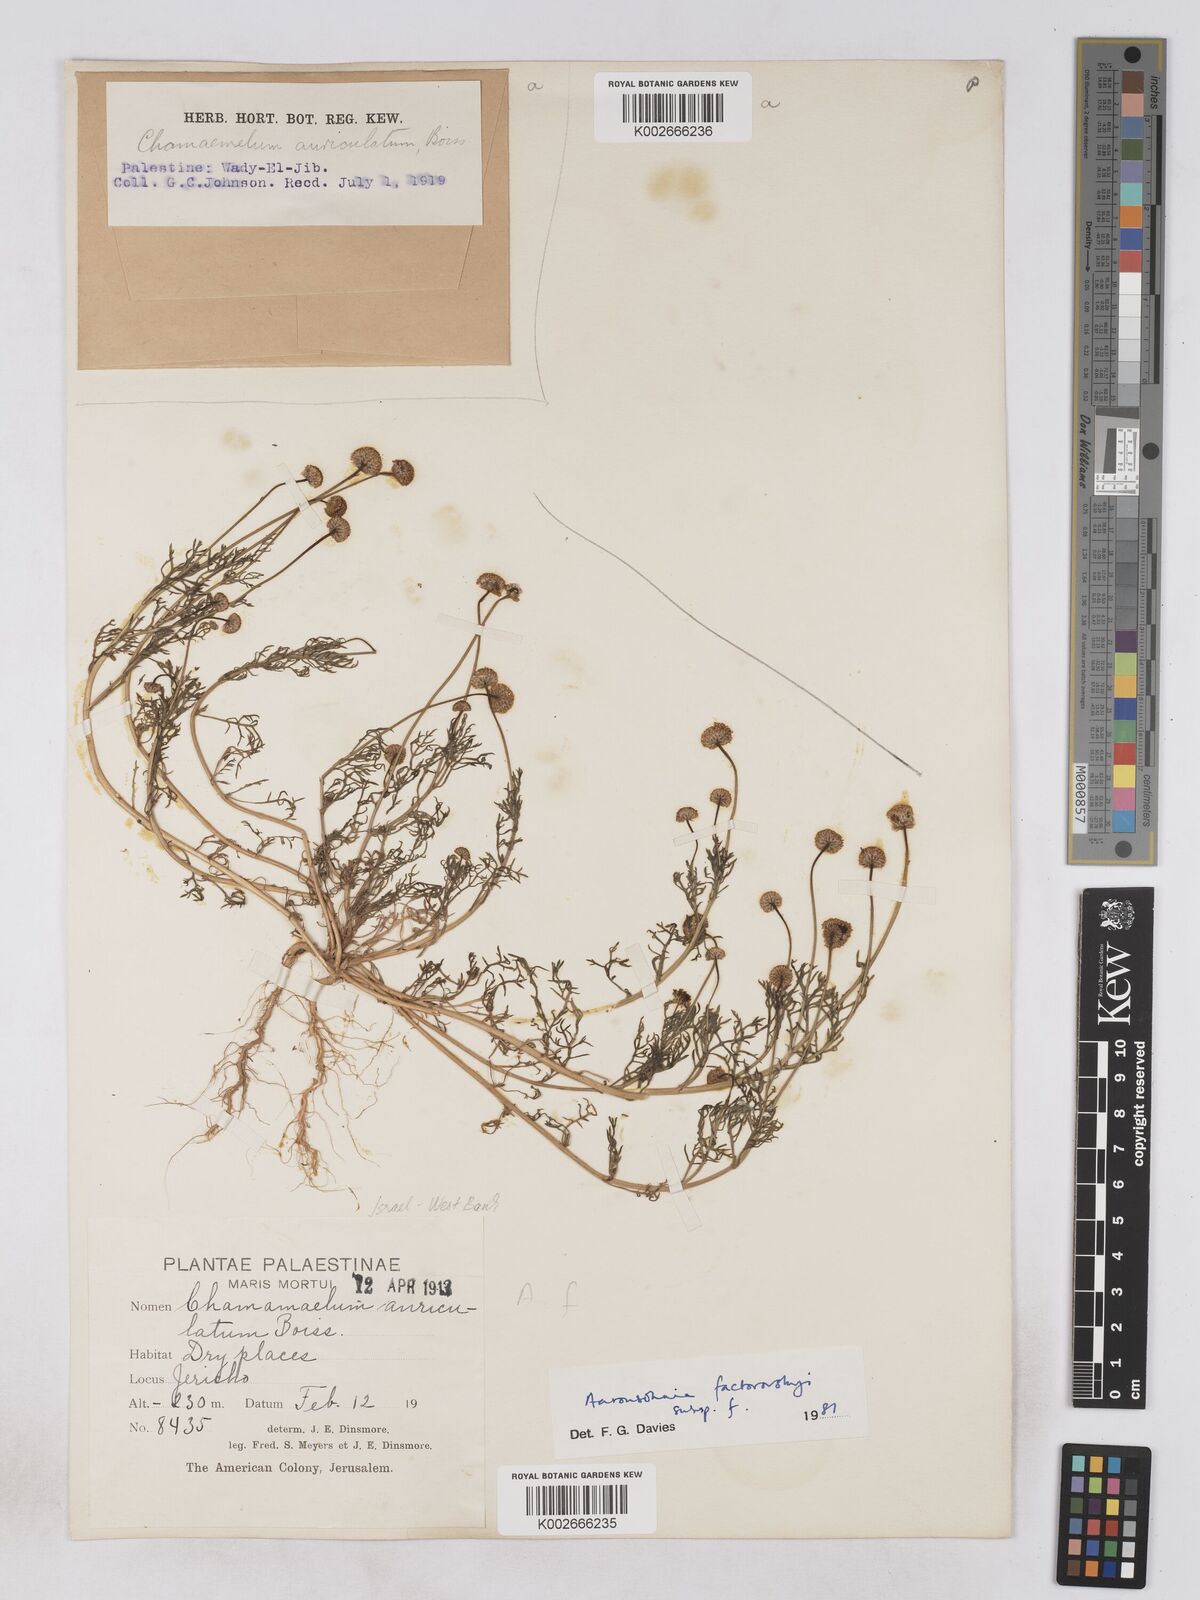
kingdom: Plantae
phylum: Tracheophyta
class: Magnoliopsida
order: Asterales
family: Asteraceae
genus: Otoglyphis
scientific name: Otoglyphis factorovskyi
